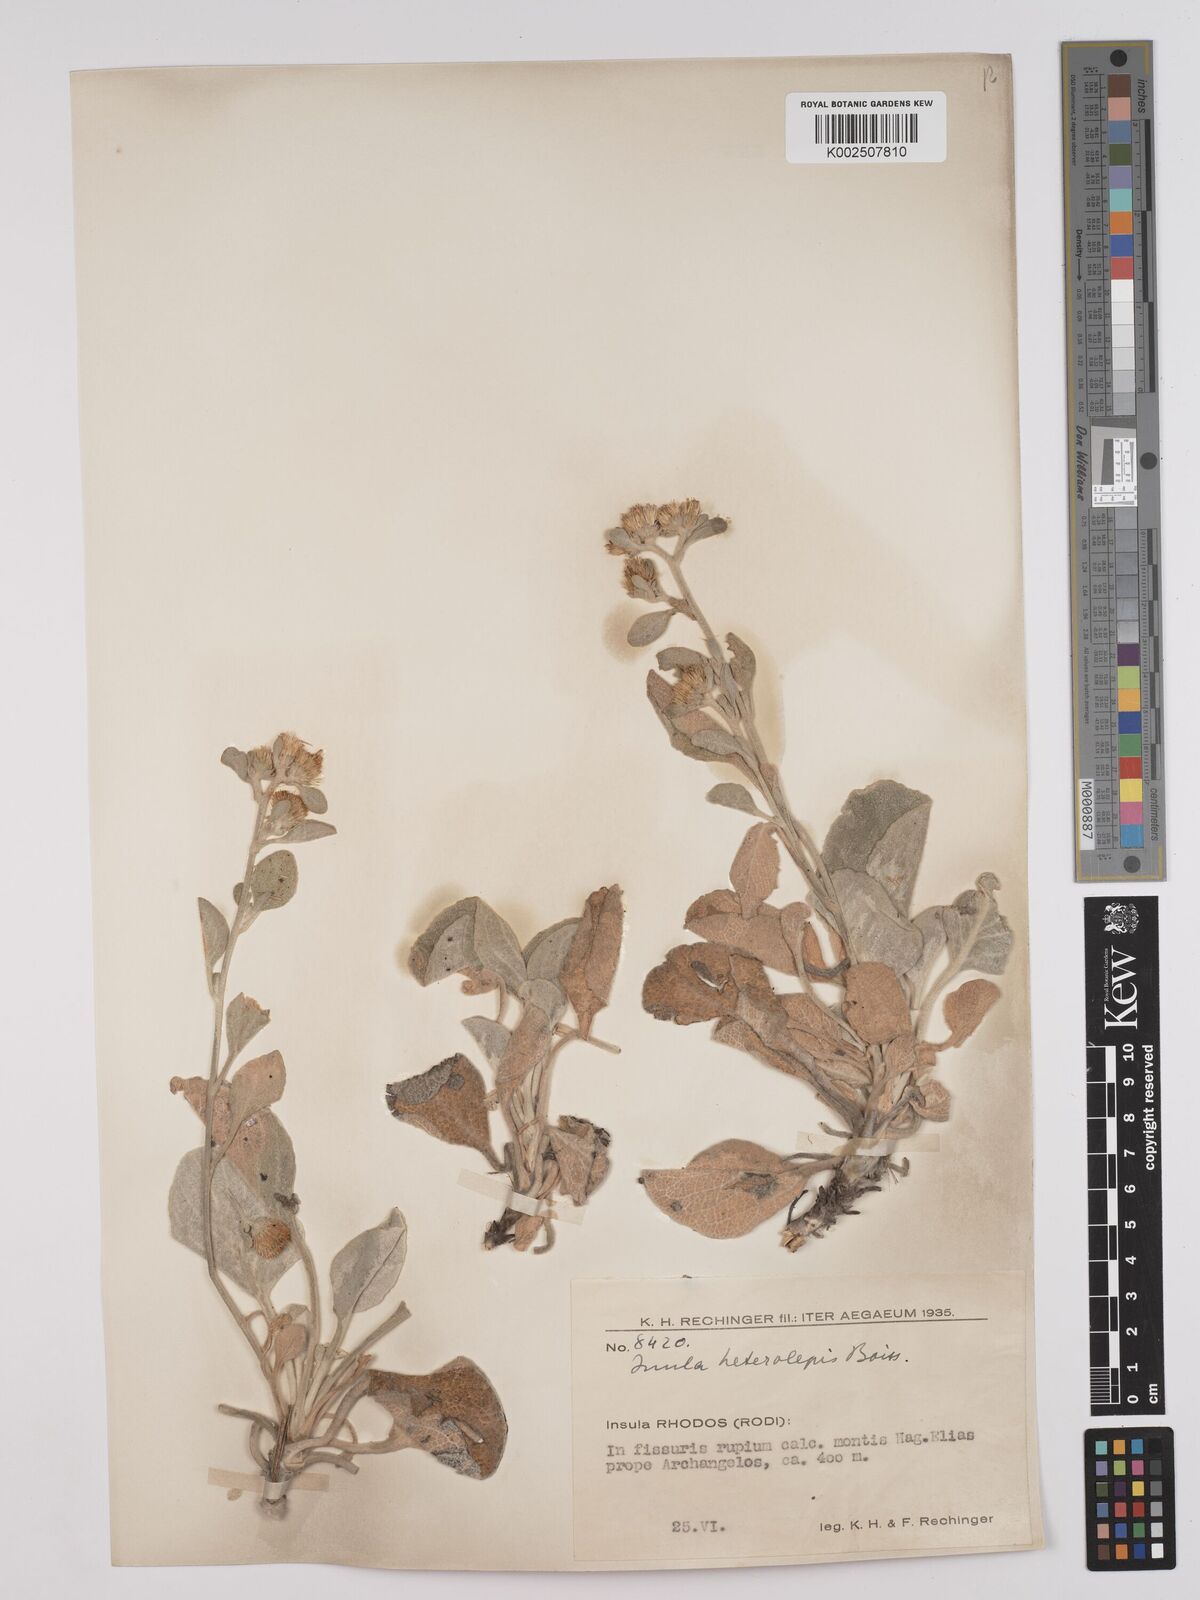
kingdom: Plantae
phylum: Tracheophyta
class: Magnoliopsida
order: Asterales
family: Asteraceae
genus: Pentanema
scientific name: Pentanema verbascifolium
